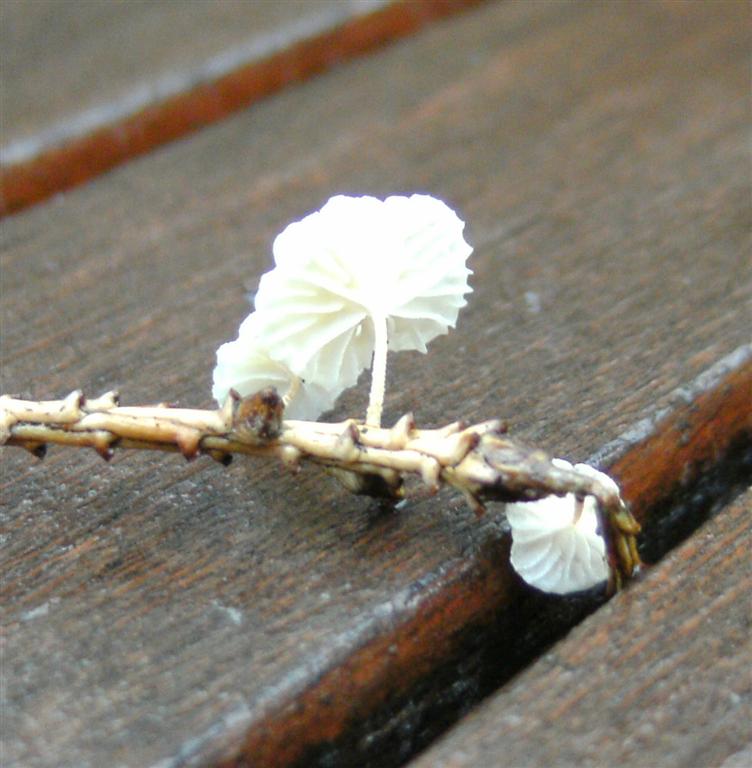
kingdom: Fungi
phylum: Basidiomycota
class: Agaricomycetes
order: Agaricales
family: Omphalotaceae
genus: Collybiopsis
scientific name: Collybiopsis ramealis
